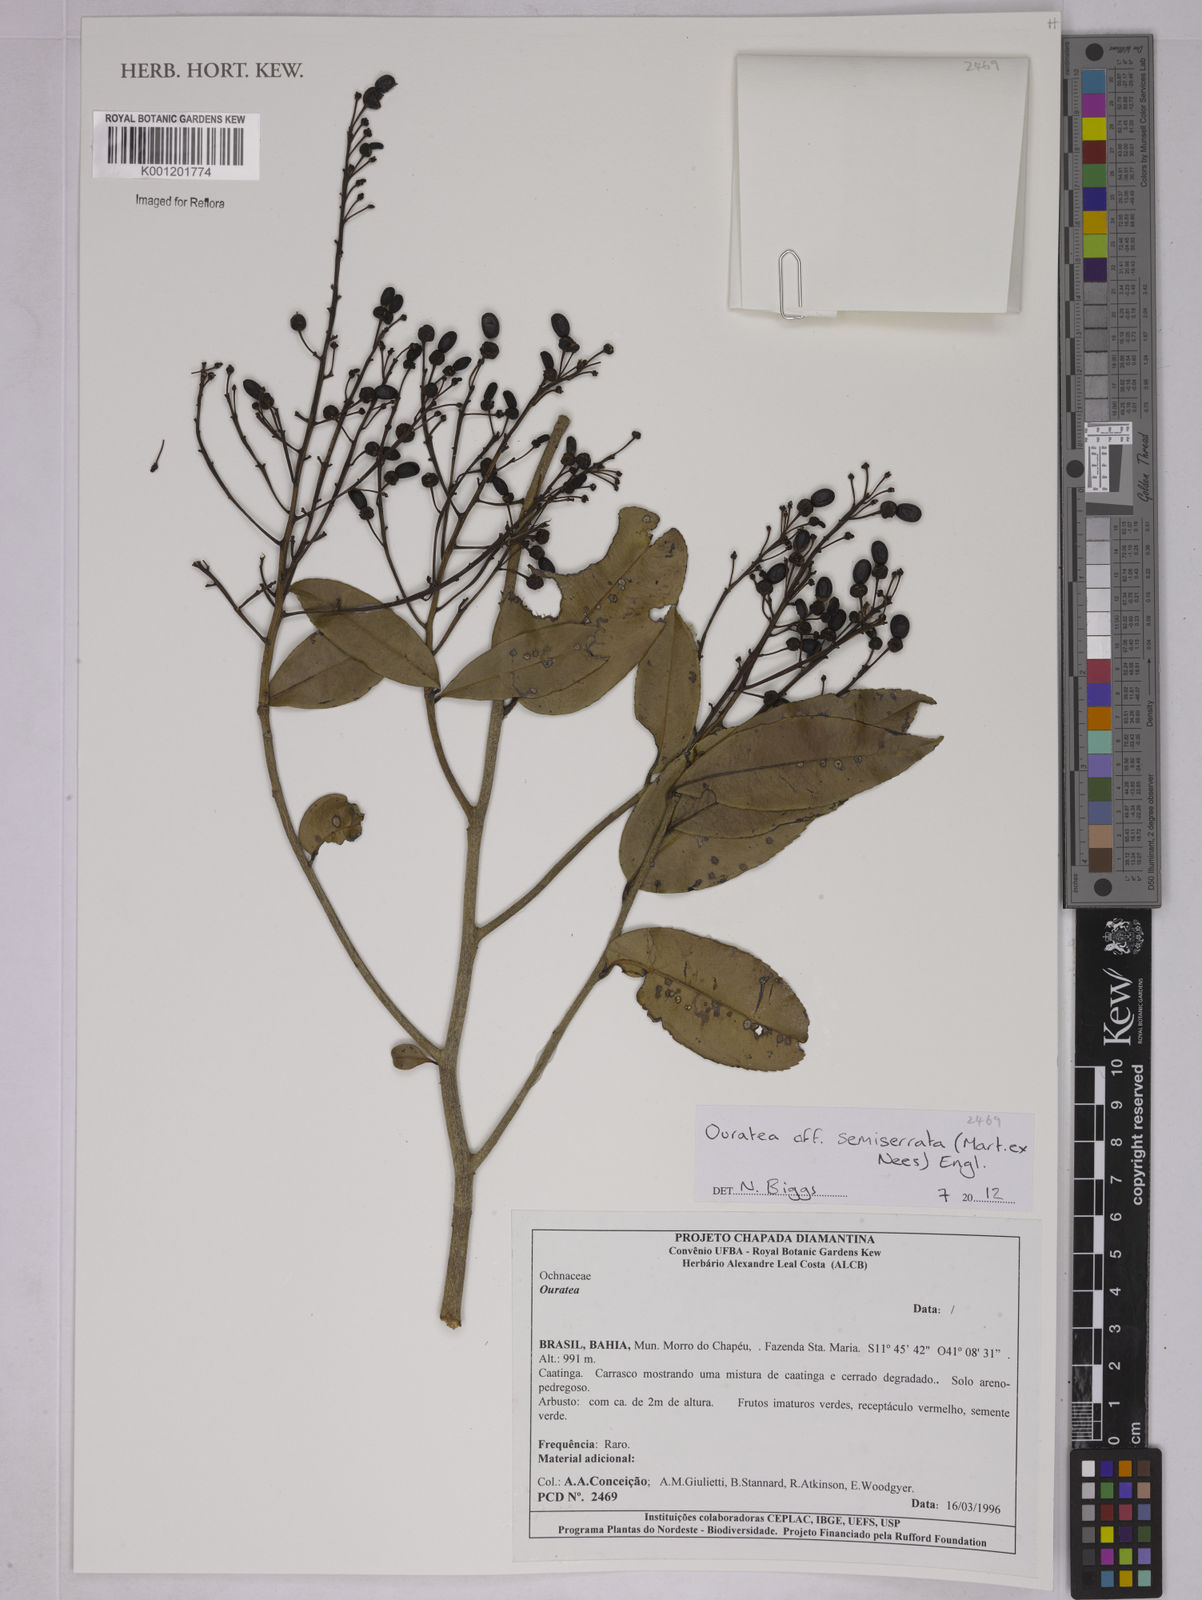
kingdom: Plantae
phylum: Tracheophyta
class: Magnoliopsida
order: Malpighiales
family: Ochnaceae
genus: Ouratea
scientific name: Ouratea semiserrata
